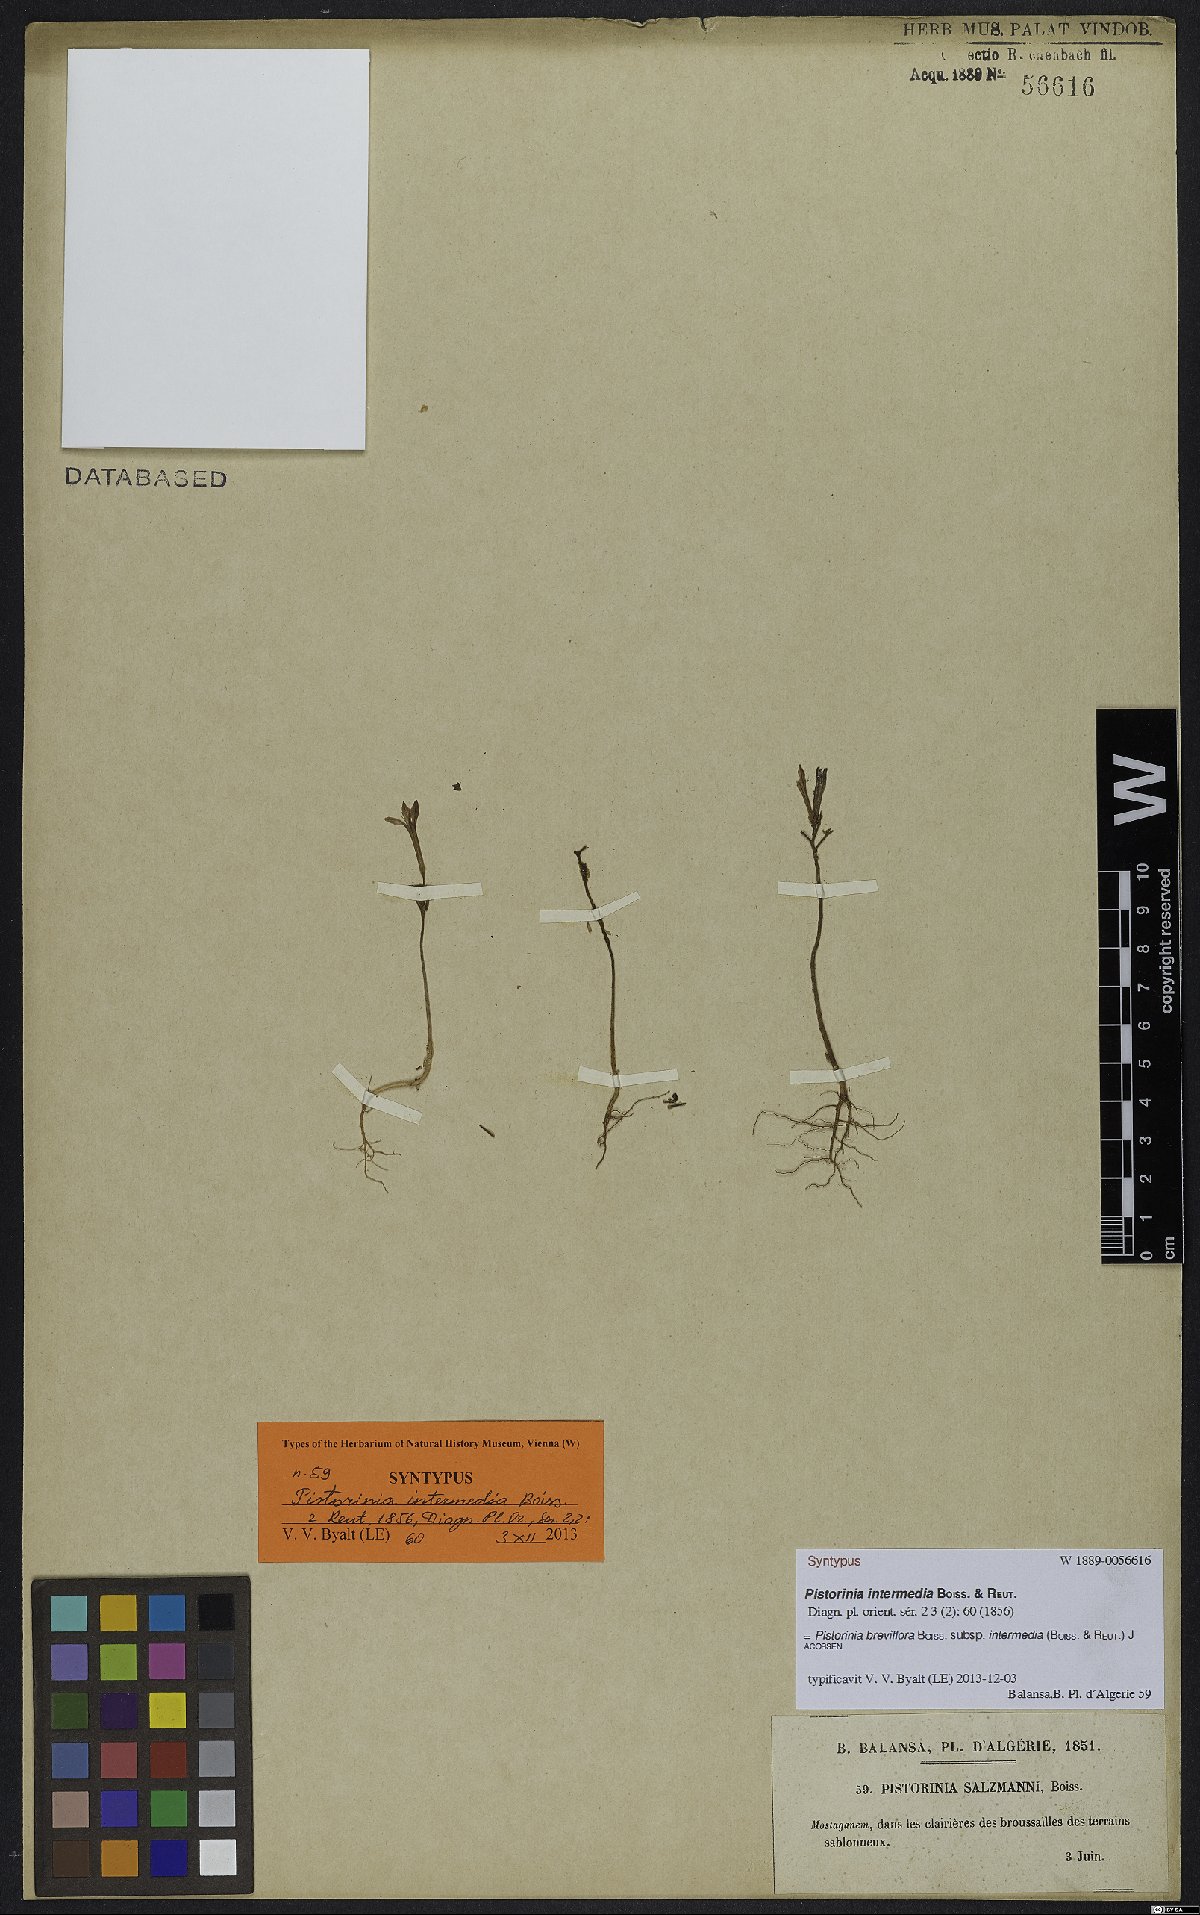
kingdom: Plantae
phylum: Tracheophyta
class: Magnoliopsida
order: Saxifragales
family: Crassulaceae
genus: Pistorinia
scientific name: Pistorinia breviflora
